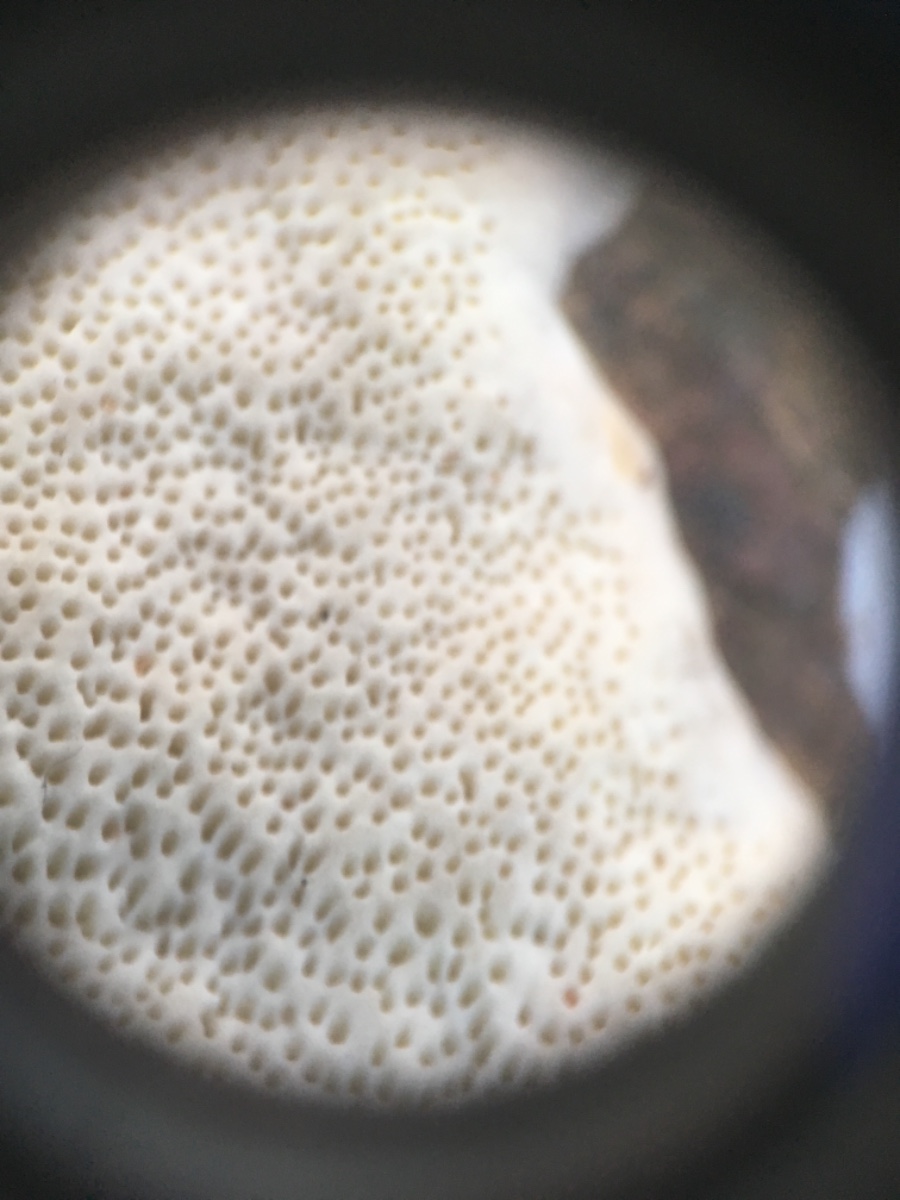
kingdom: Fungi
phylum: Basidiomycota
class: Agaricomycetes
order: Polyporales
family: Fomitopsidaceae
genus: Fomitopsis
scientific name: Fomitopsis pinicola
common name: randbæltet hovporesvamp
